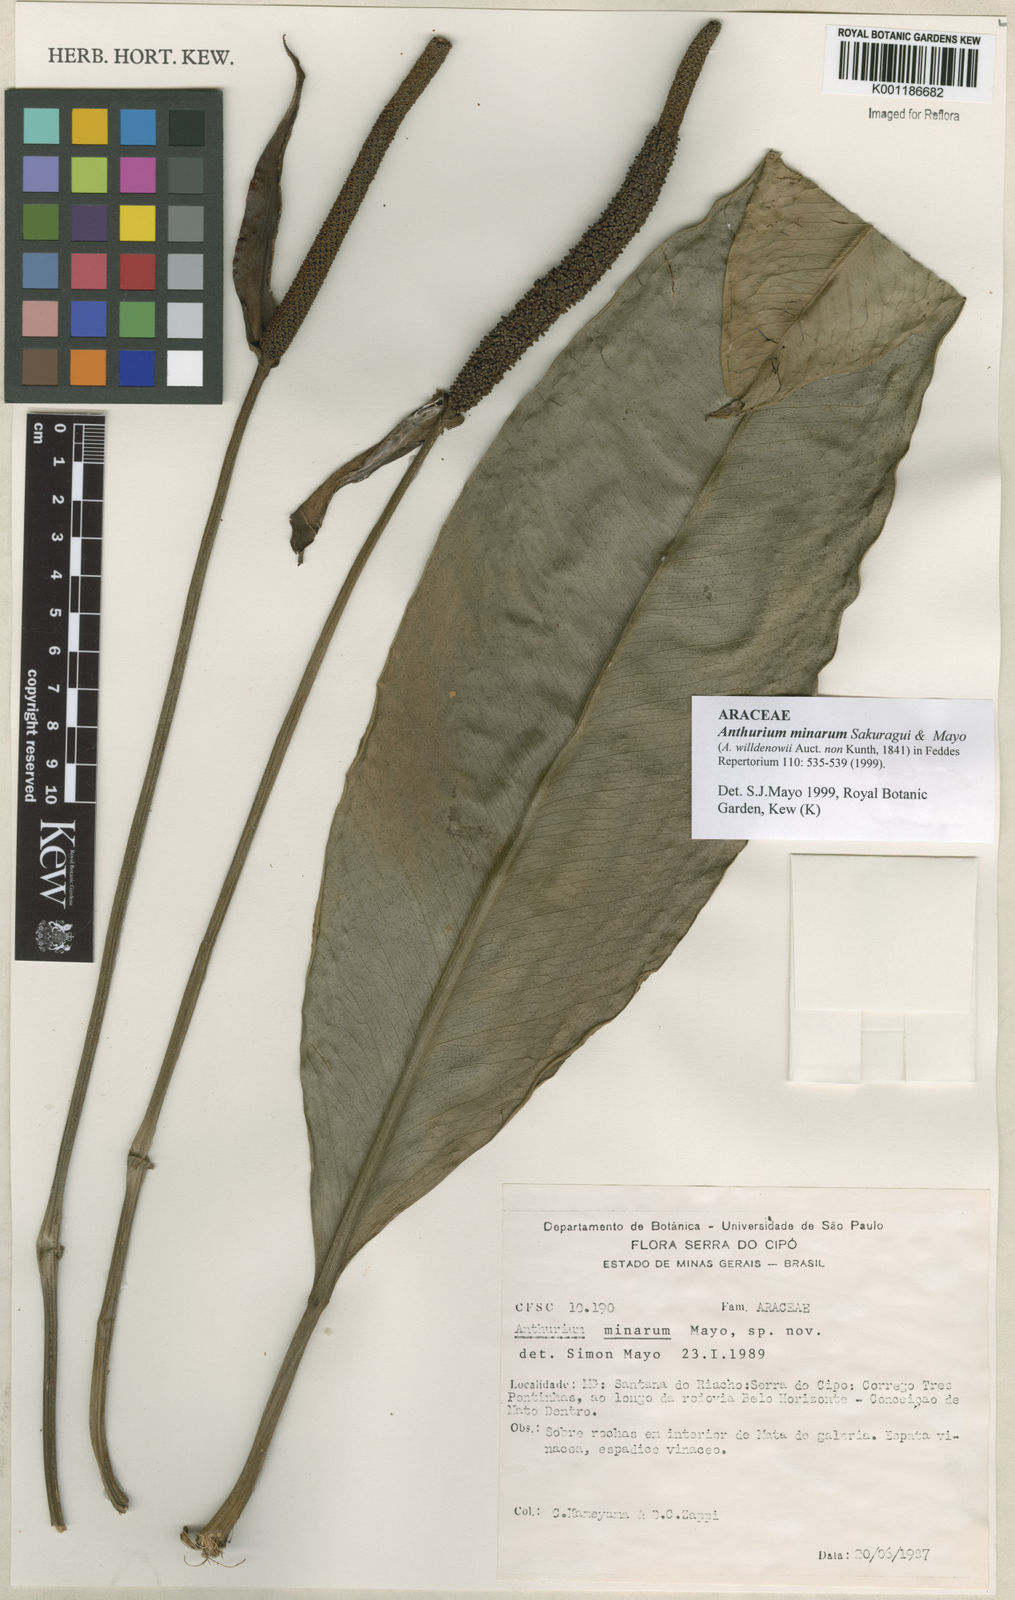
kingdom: Plantae
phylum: Tracheophyta
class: Liliopsida
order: Alismatales
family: Araceae
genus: Anthurium
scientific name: Anthurium minarum
